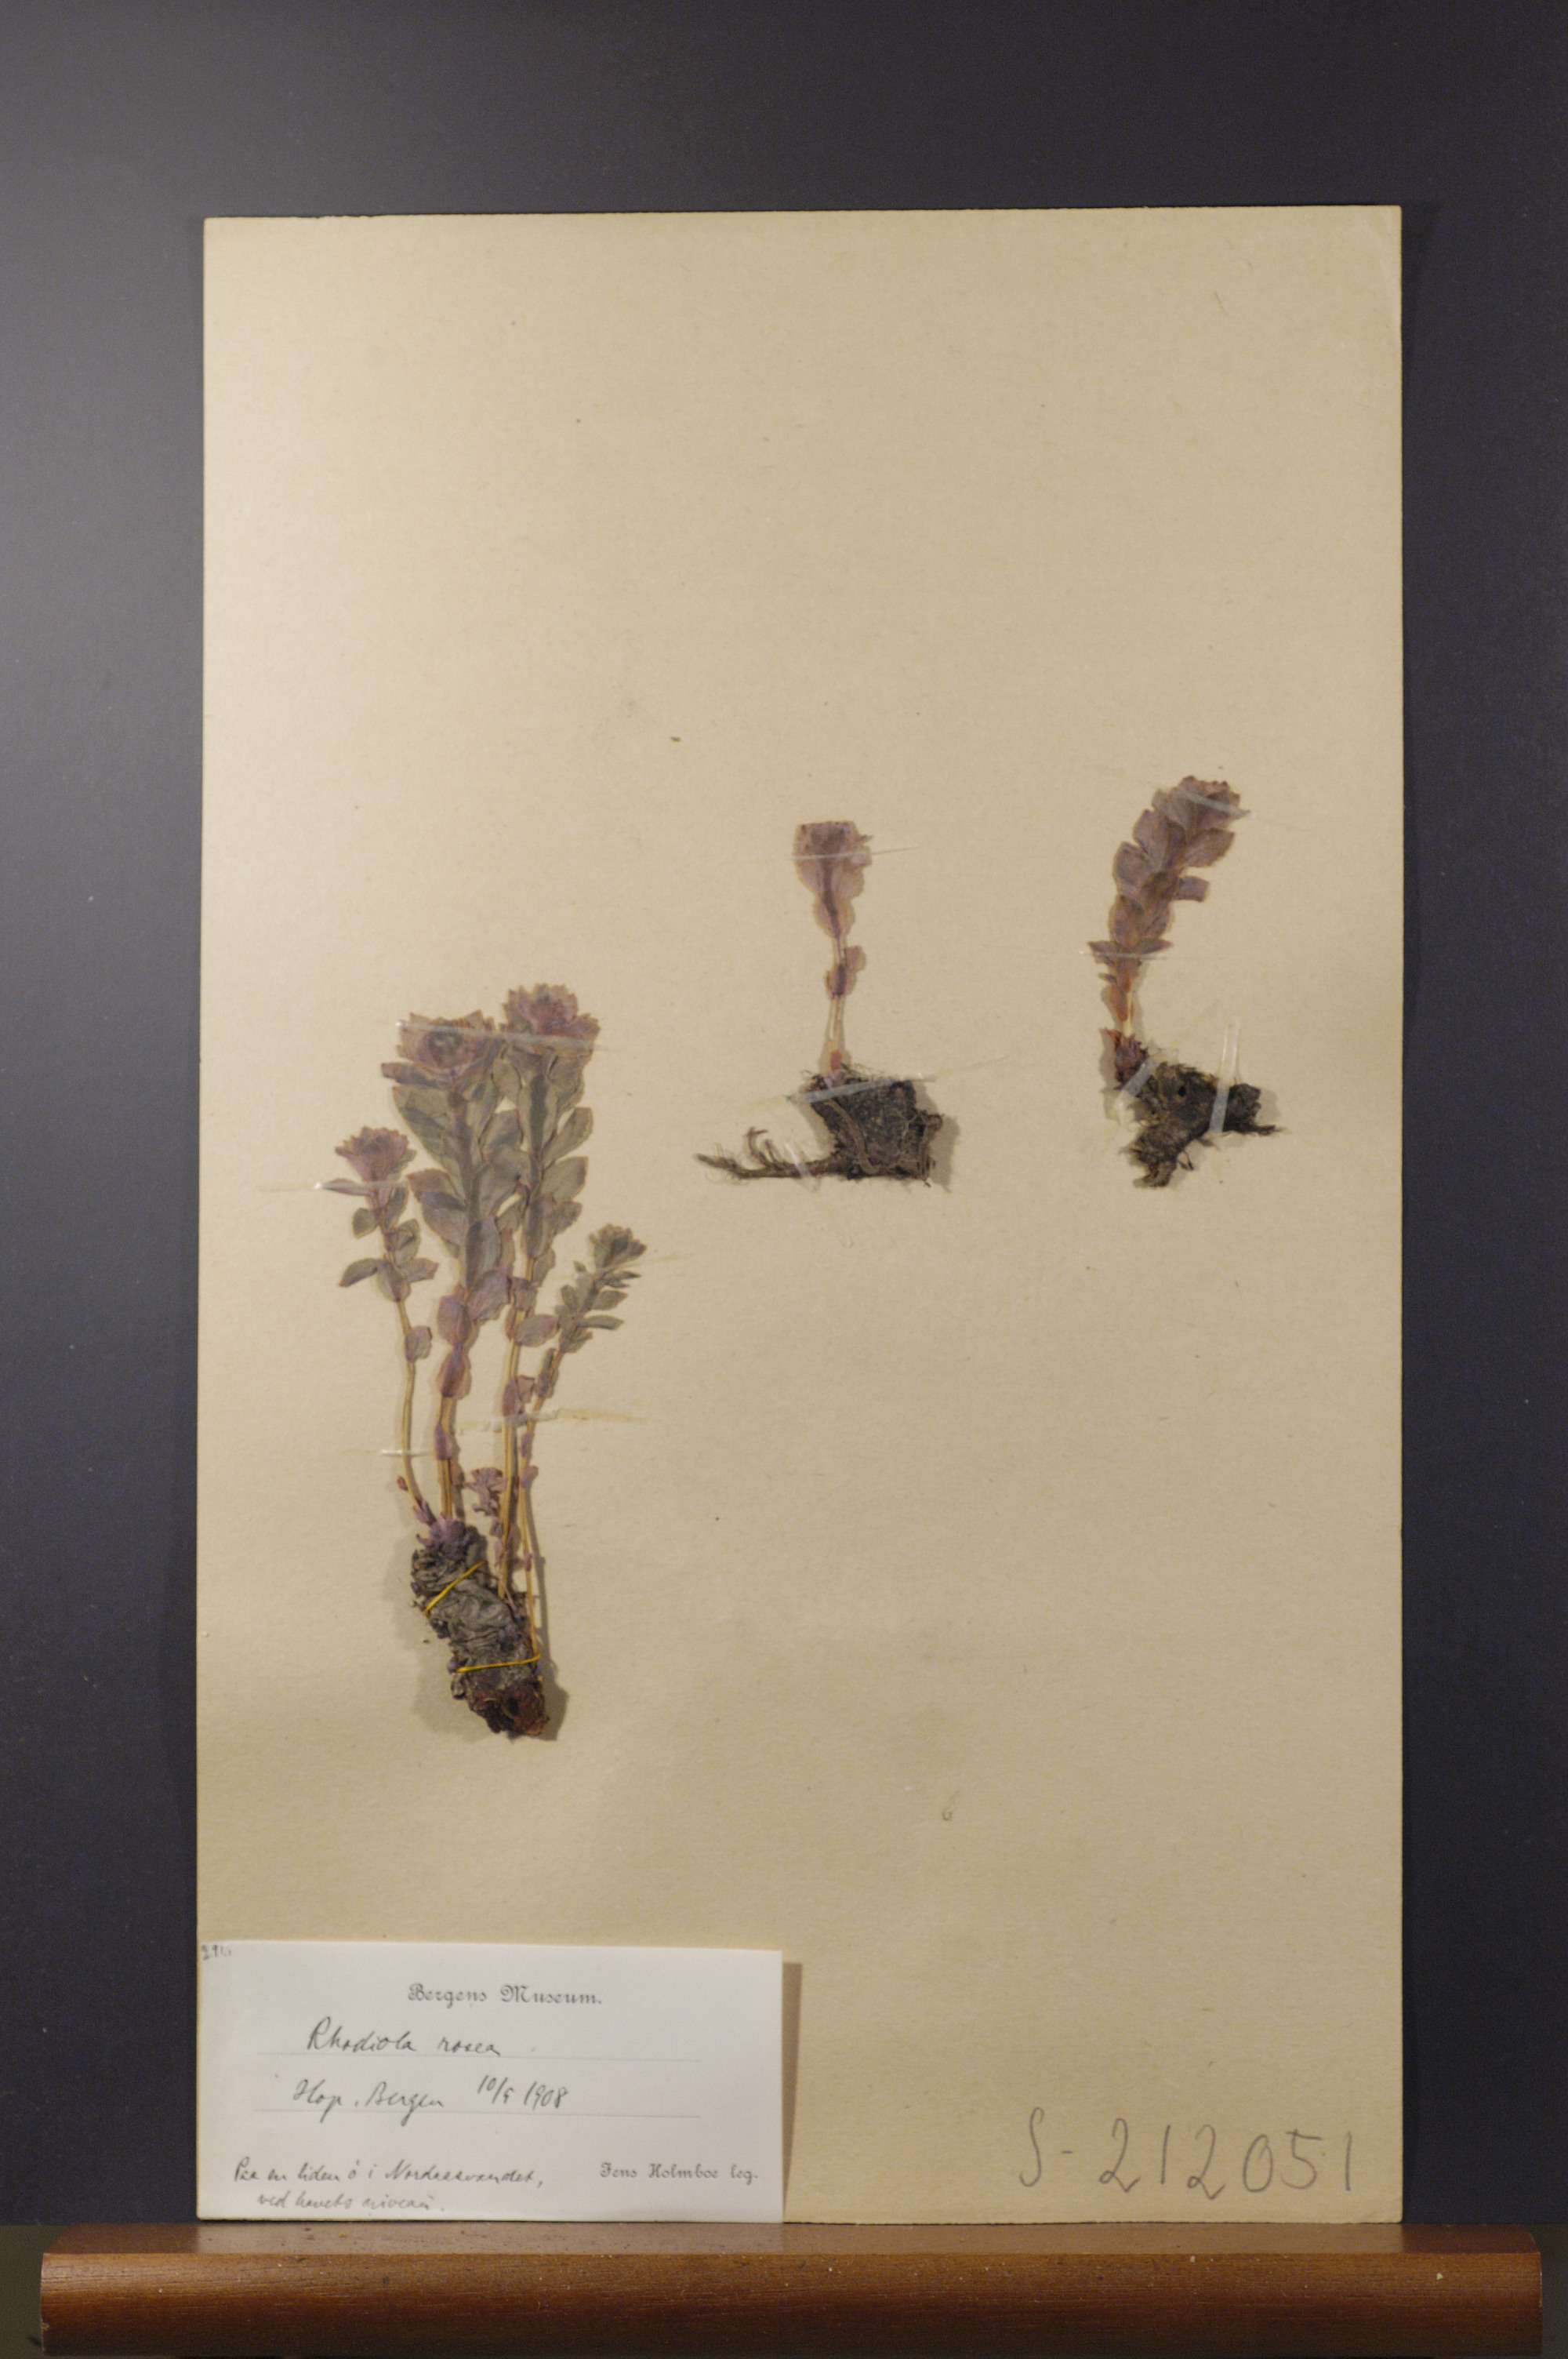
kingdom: Plantae
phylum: Tracheophyta
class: Magnoliopsida
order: Saxifragales
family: Crassulaceae
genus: Rhodiola
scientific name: Rhodiola rosea
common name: Roseroot
